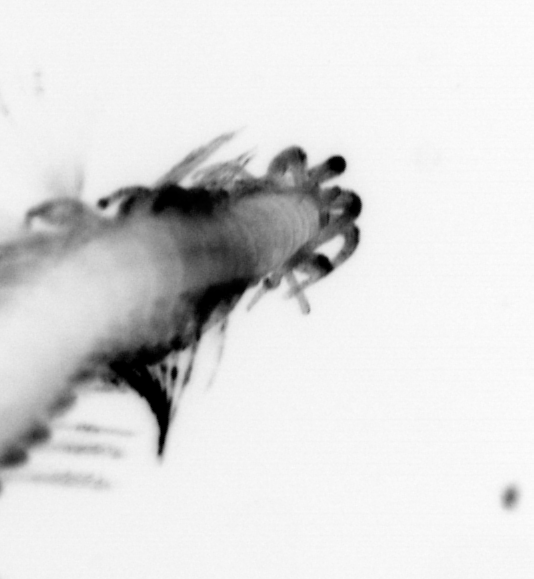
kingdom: Animalia
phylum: Annelida
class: Polychaeta
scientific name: Polychaeta
